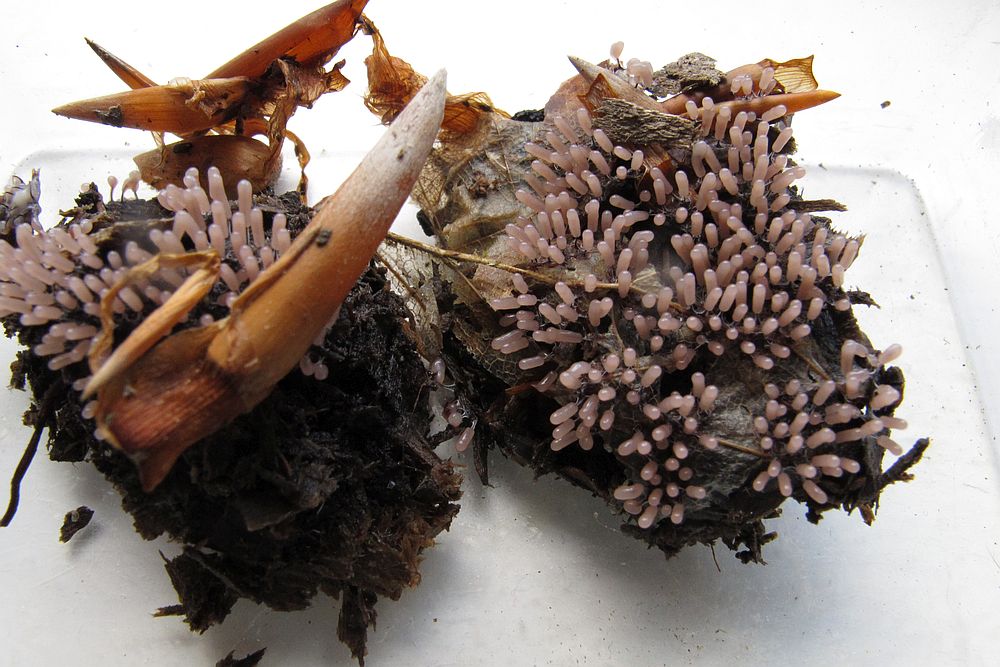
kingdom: Protozoa
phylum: Mycetozoa
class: Myxomycetes
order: Stemonitidales
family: Stemonitidaceae
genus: Stemonitopsis
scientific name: Stemonitopsis typhina
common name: skinnende støvkølle
